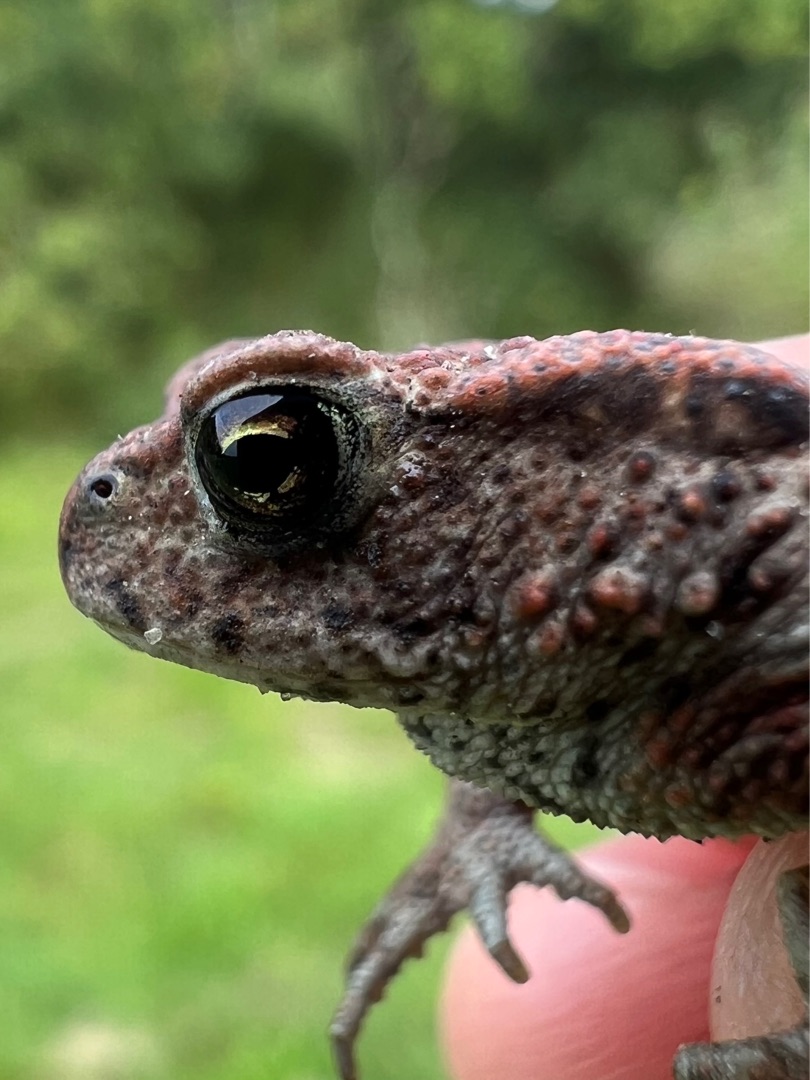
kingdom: Animalia
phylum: Chordata
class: Amphibia
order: Anura
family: Bufonidae
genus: Bufo
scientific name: Bufo bufo
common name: Skrubtudse
